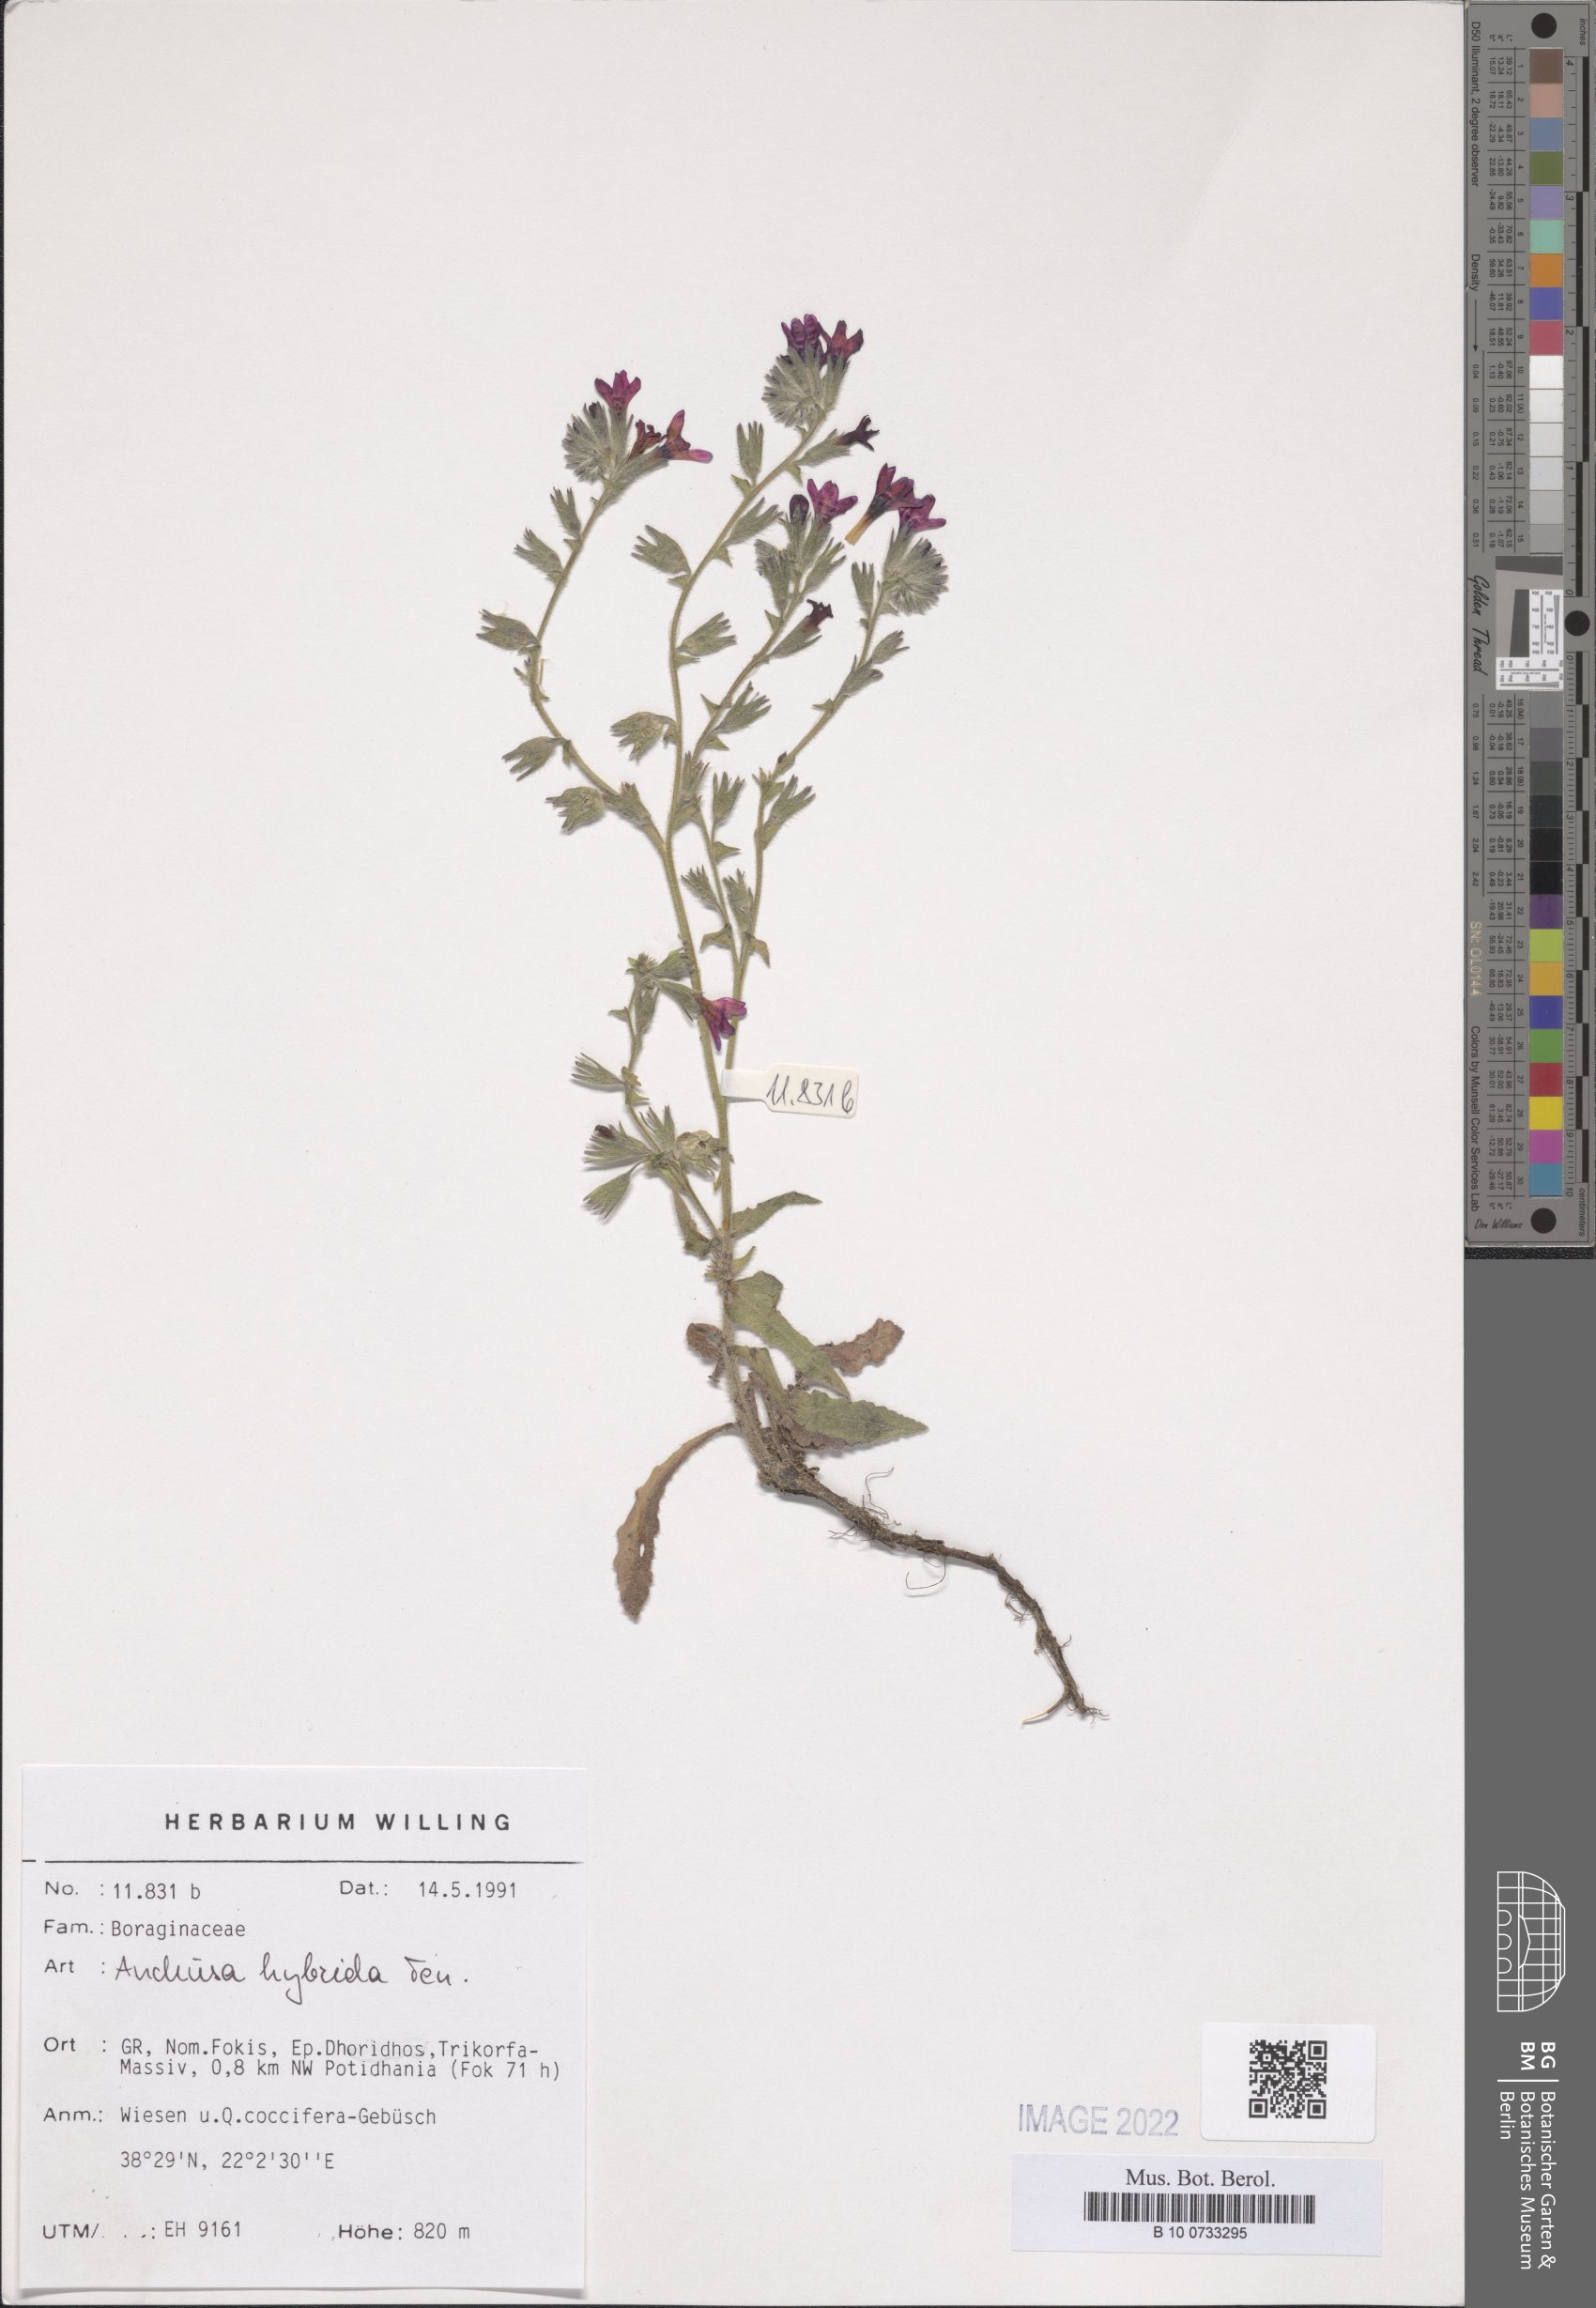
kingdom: Plantae
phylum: Tracheophyta
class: Magnoliopsida
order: Boraginales
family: Boraginaceae
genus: Anchusa
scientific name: Anchusa undulata
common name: Undulate alkanet
